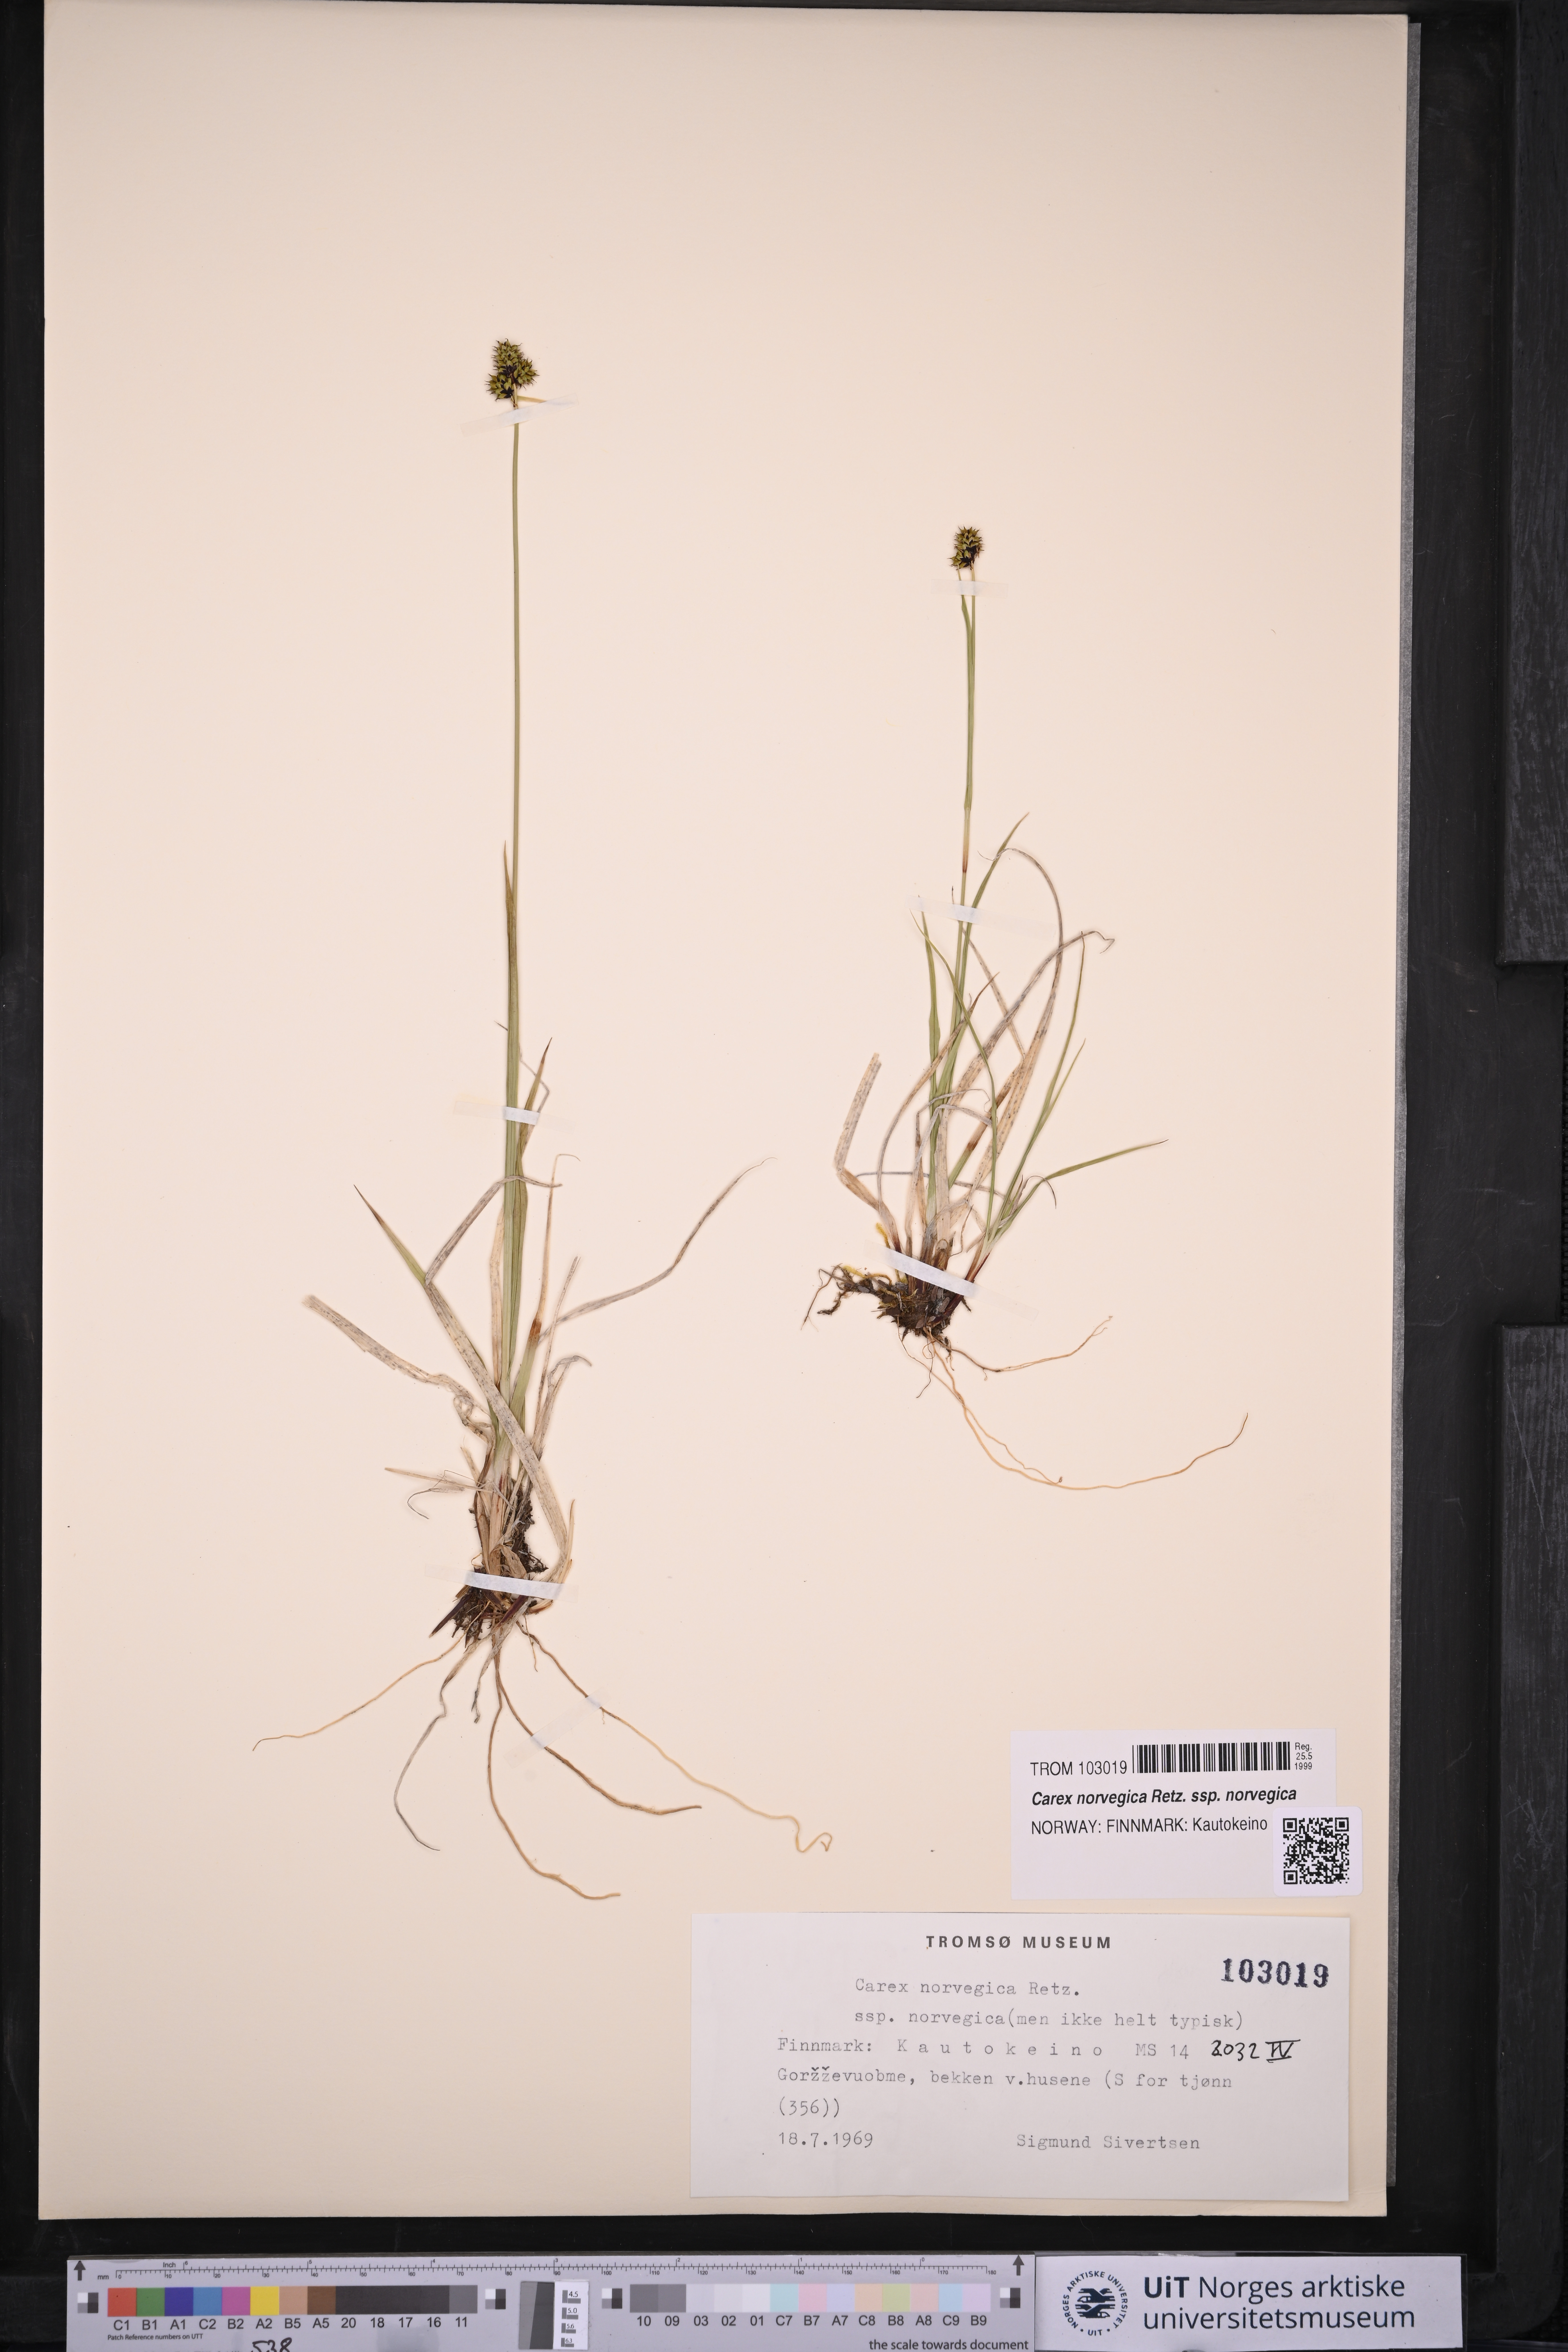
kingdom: Plantae
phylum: Tracheophyta
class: Liliopsida
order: Poales
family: Cyperaceae
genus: Carex
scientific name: Carex norvegica
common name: Close-headed alpine-sedge
